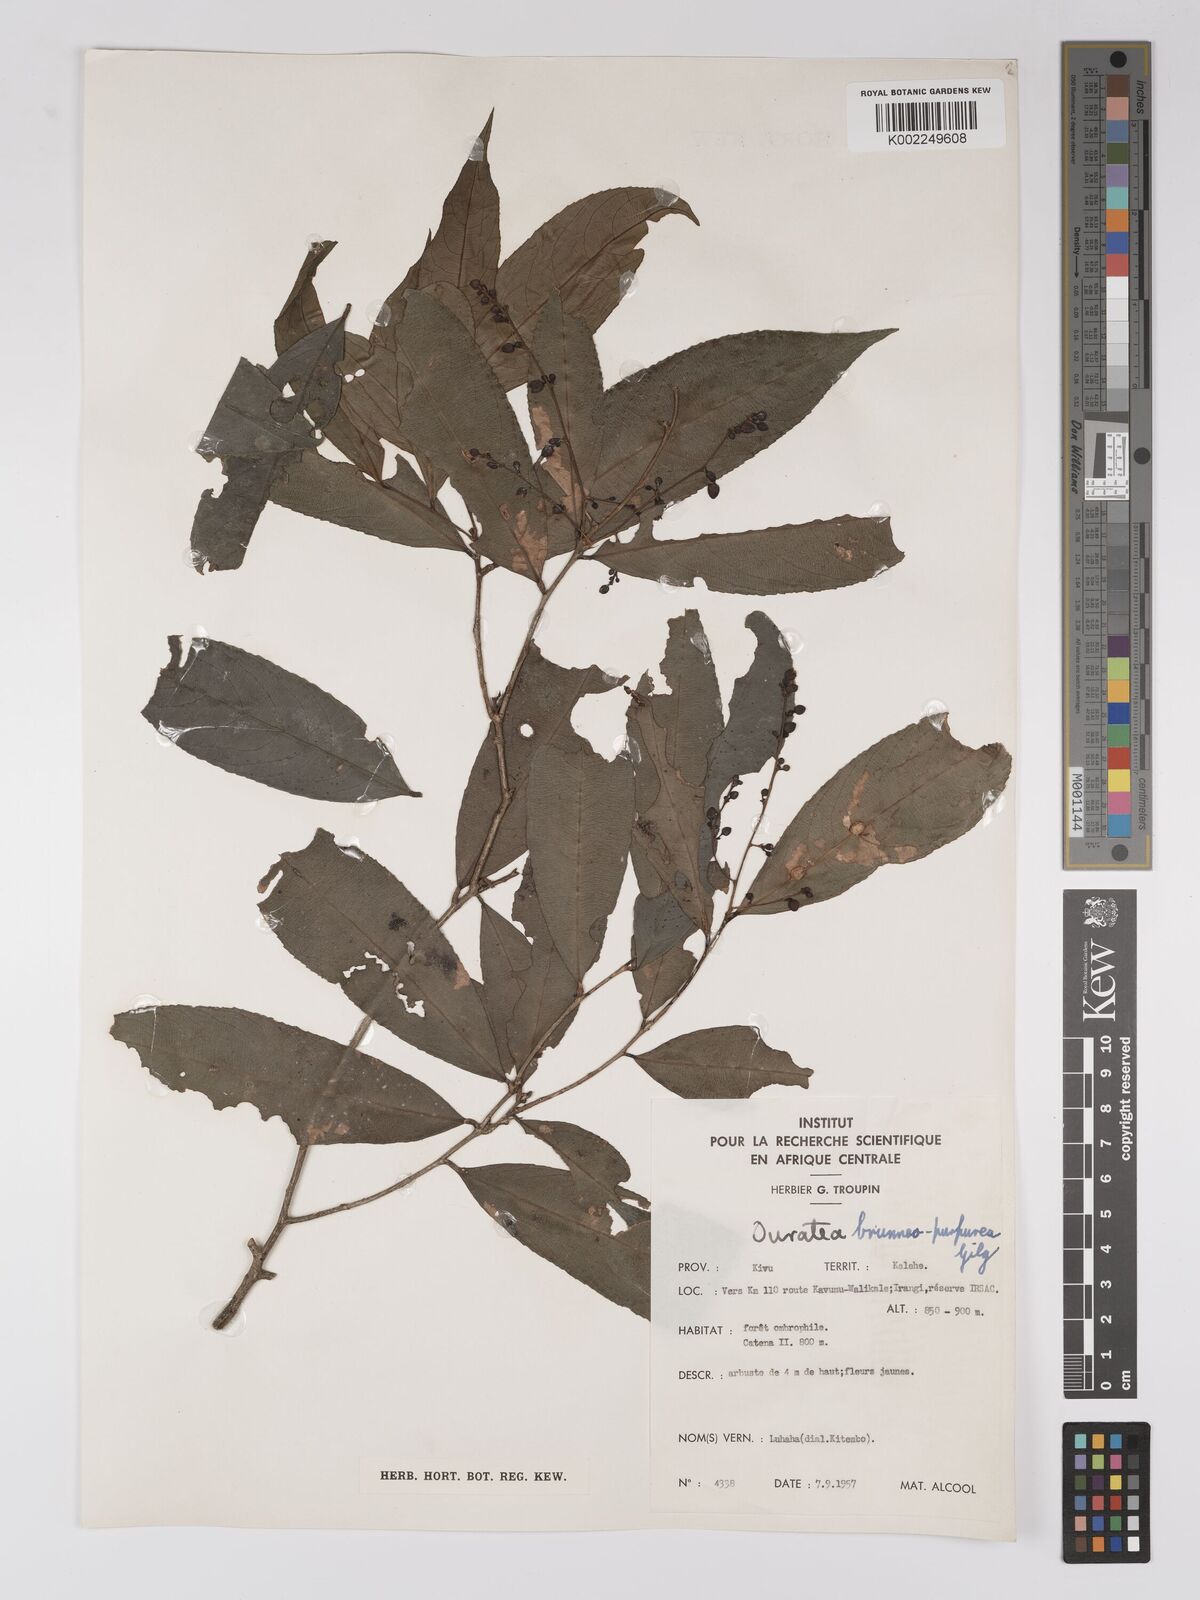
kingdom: Plantae
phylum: Tracheophyta
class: Magnoliopsida
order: Malpighiales
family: Ochnaceae
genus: Campylospermum
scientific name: Campylospermum reticulatum
